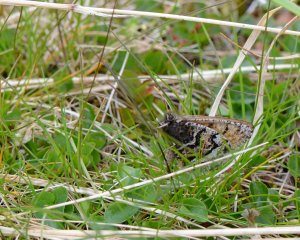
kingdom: Animalia
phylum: Arthropoda
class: Insecta
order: Lepidoptera
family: Nymphalidae
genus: Oeneis
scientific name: Oeneis bore
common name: White-veined Arctic
